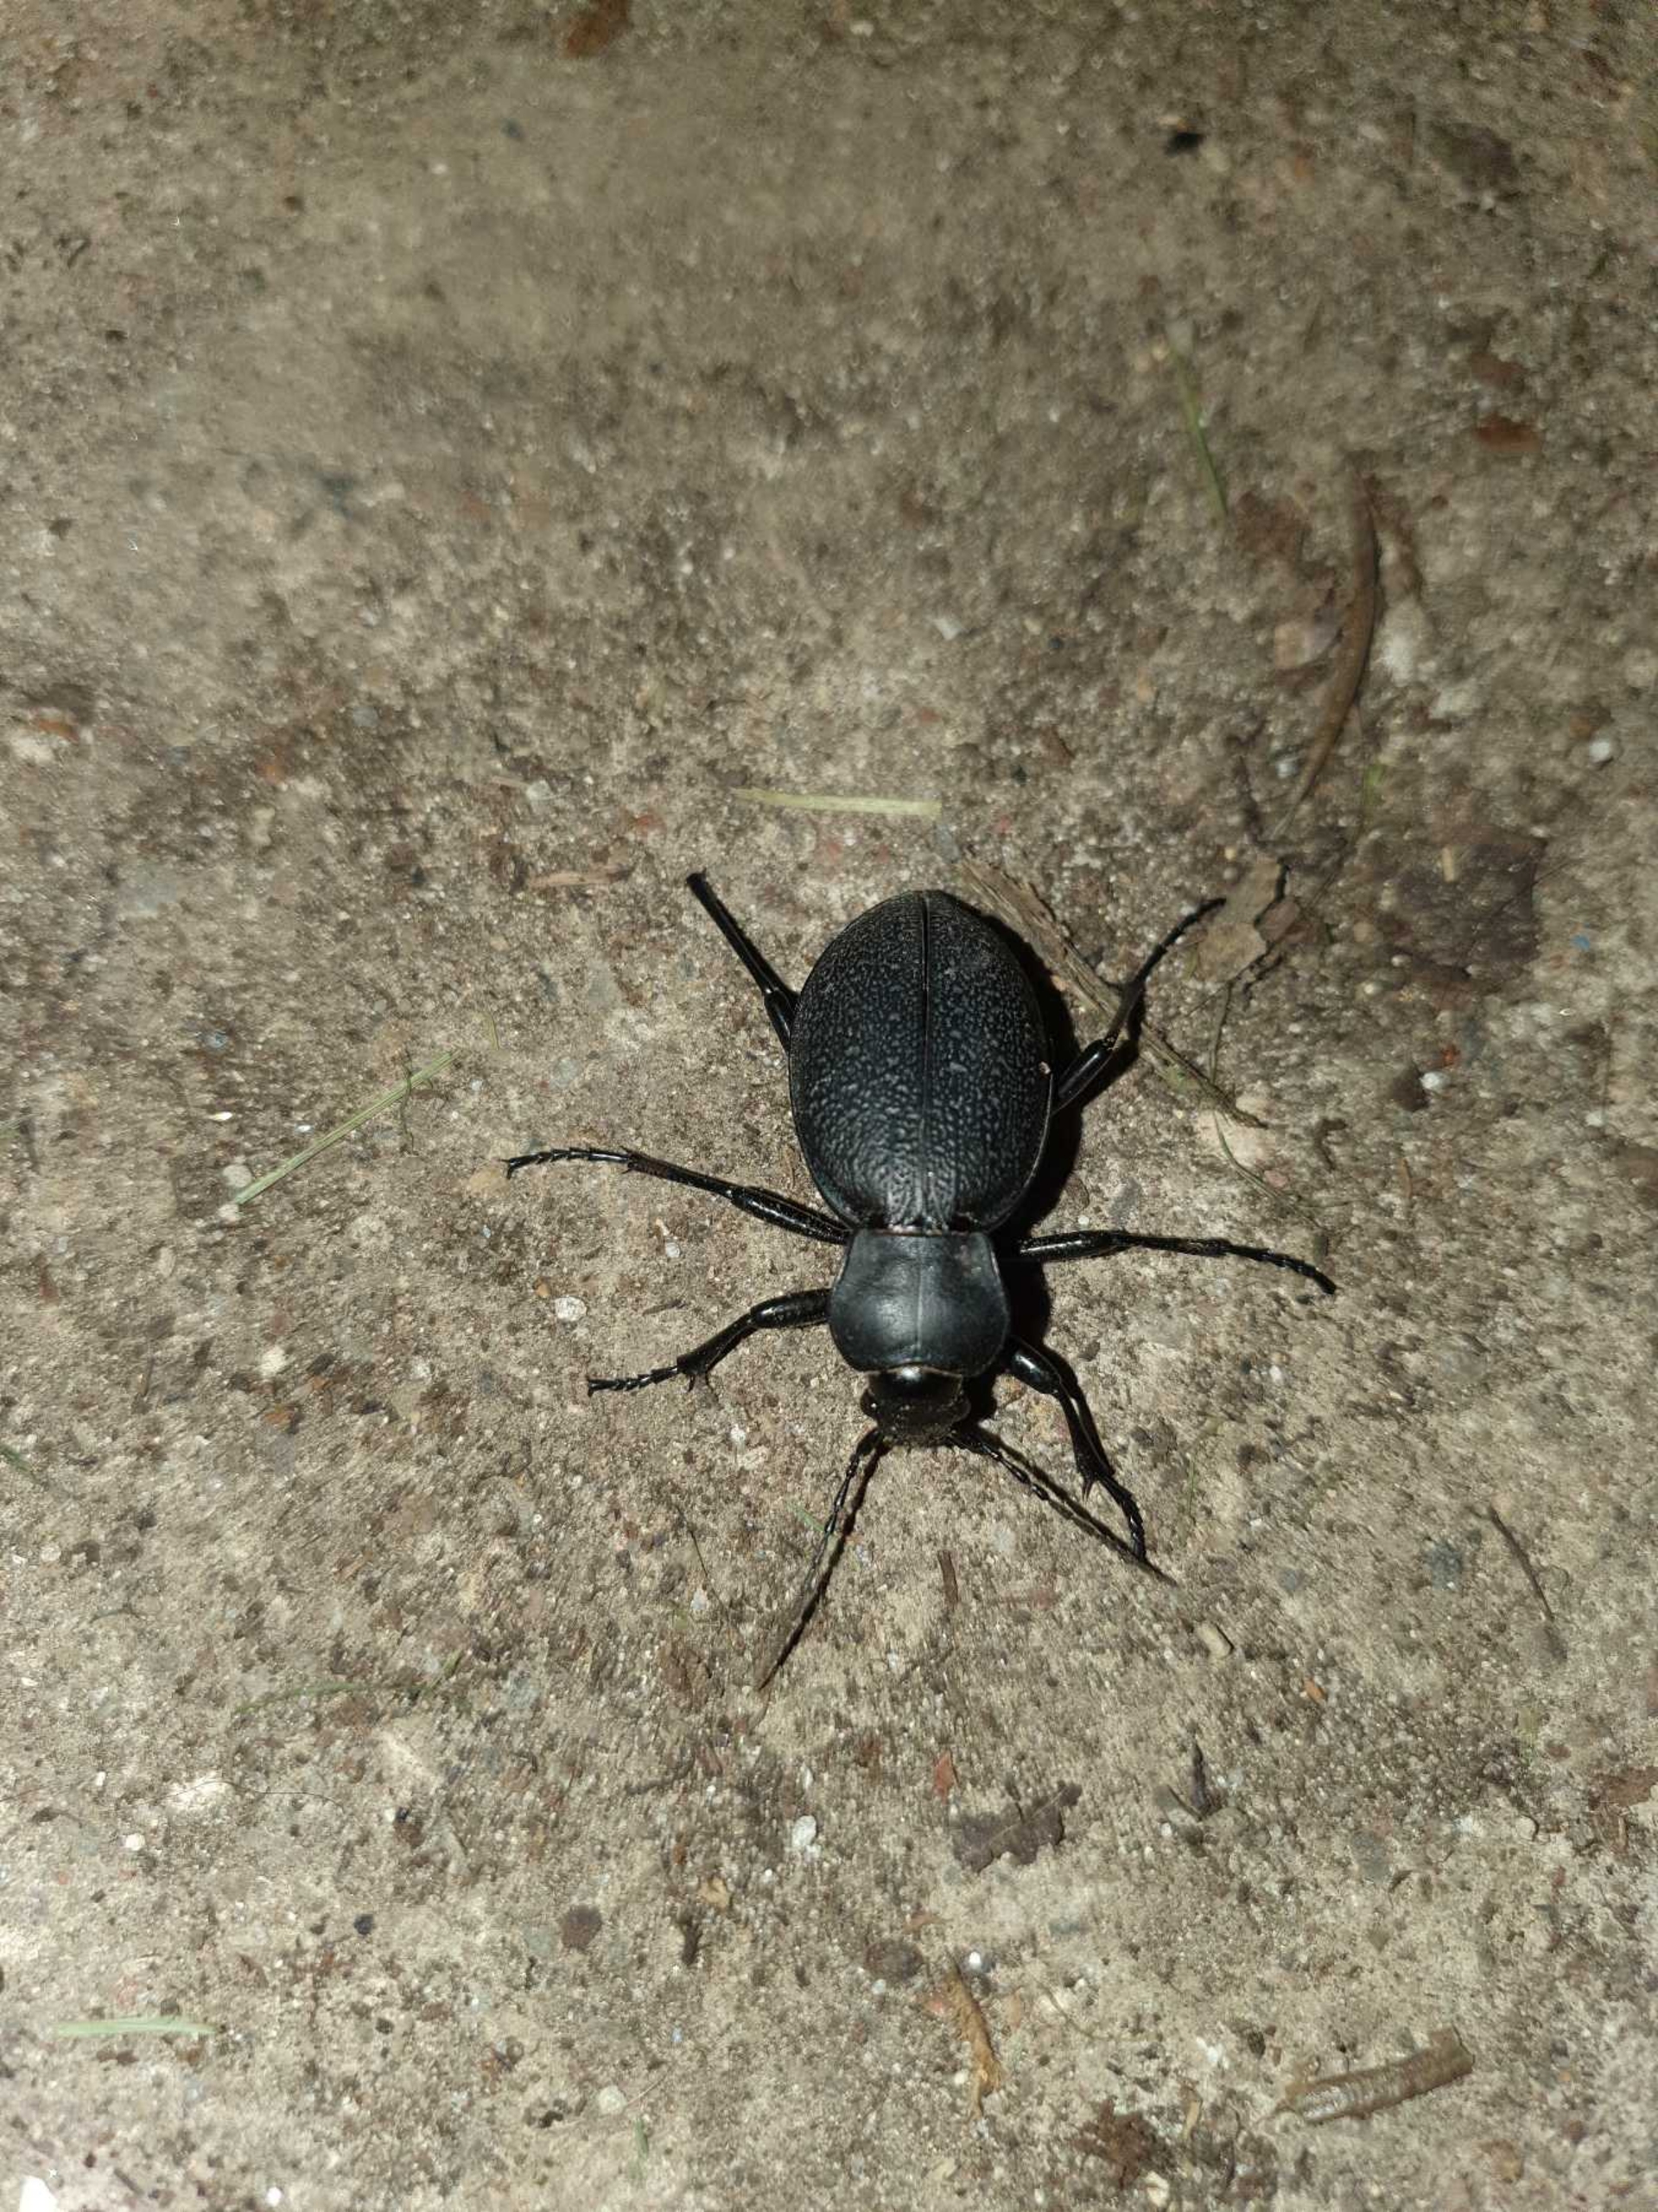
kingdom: Animalia
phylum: Arthropoda
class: Insecta
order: Coleoptera
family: Carabidae
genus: Carabus
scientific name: Carabus coriaceus
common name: Læderløber
